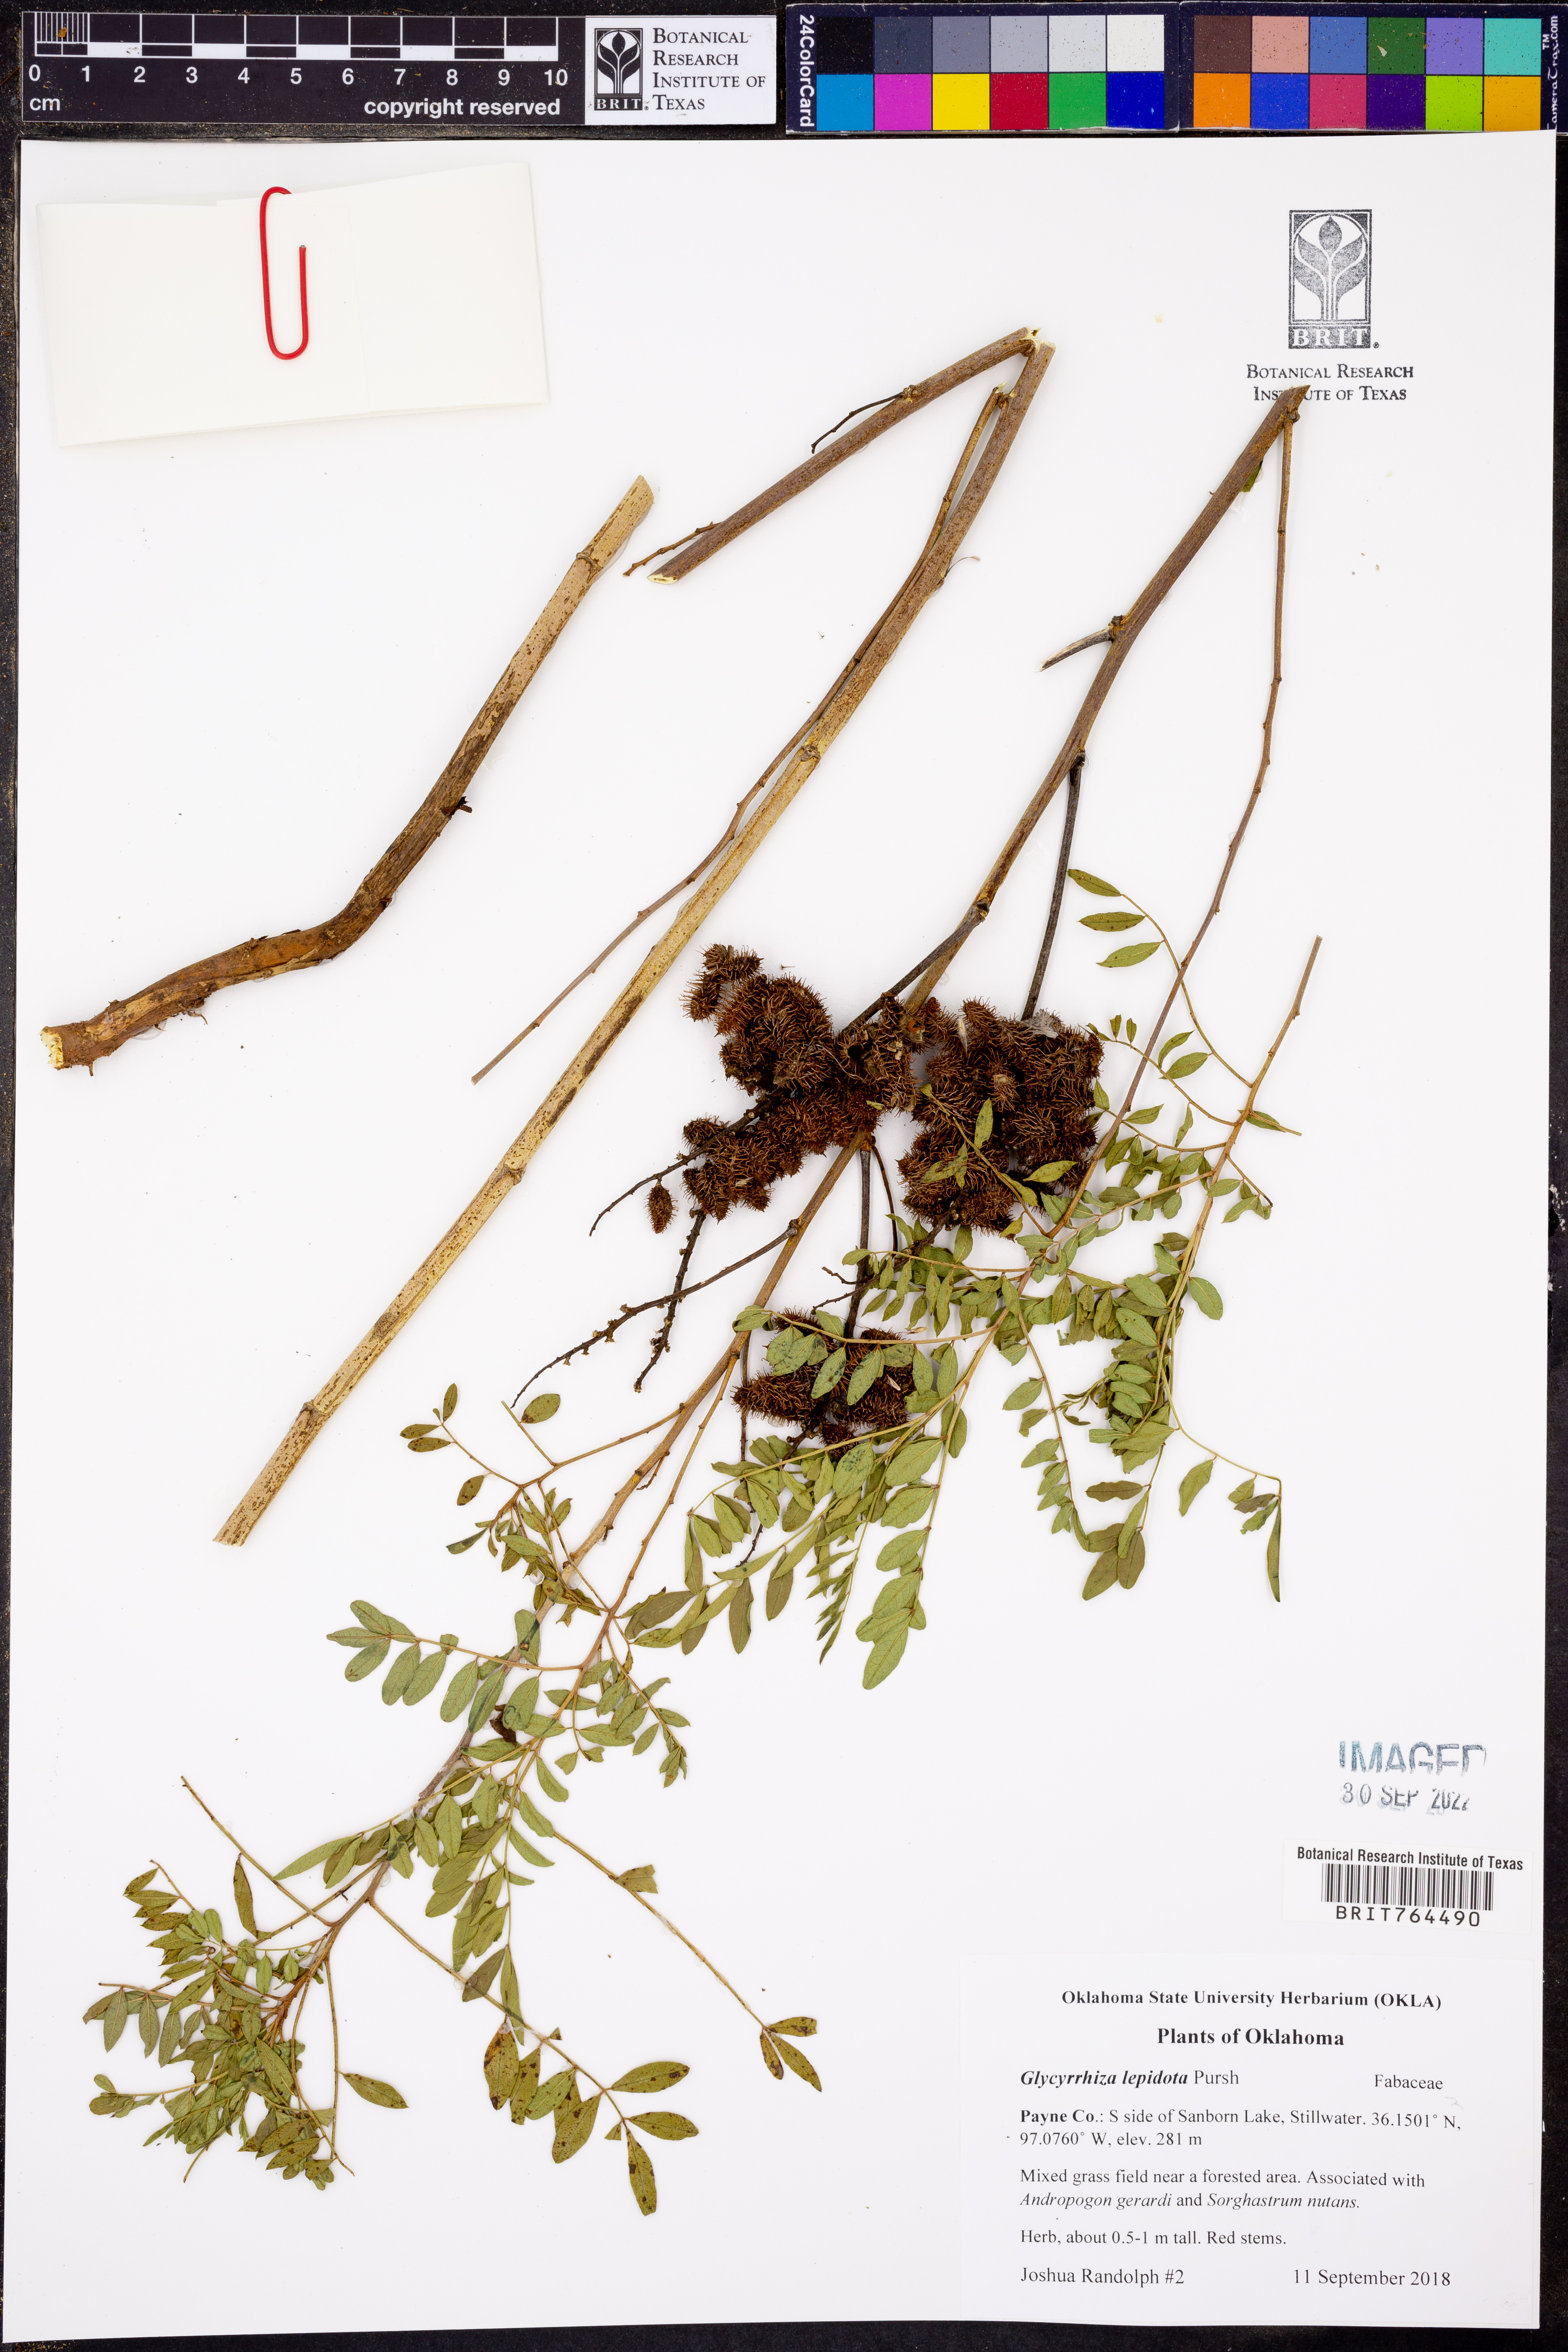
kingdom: Plantae
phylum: Tracheophyta
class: Magnoliopsida
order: Fabales
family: Fabaceae
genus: Glycyrrhiza
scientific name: Glycyrrhiza lepidota
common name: American liquorice
